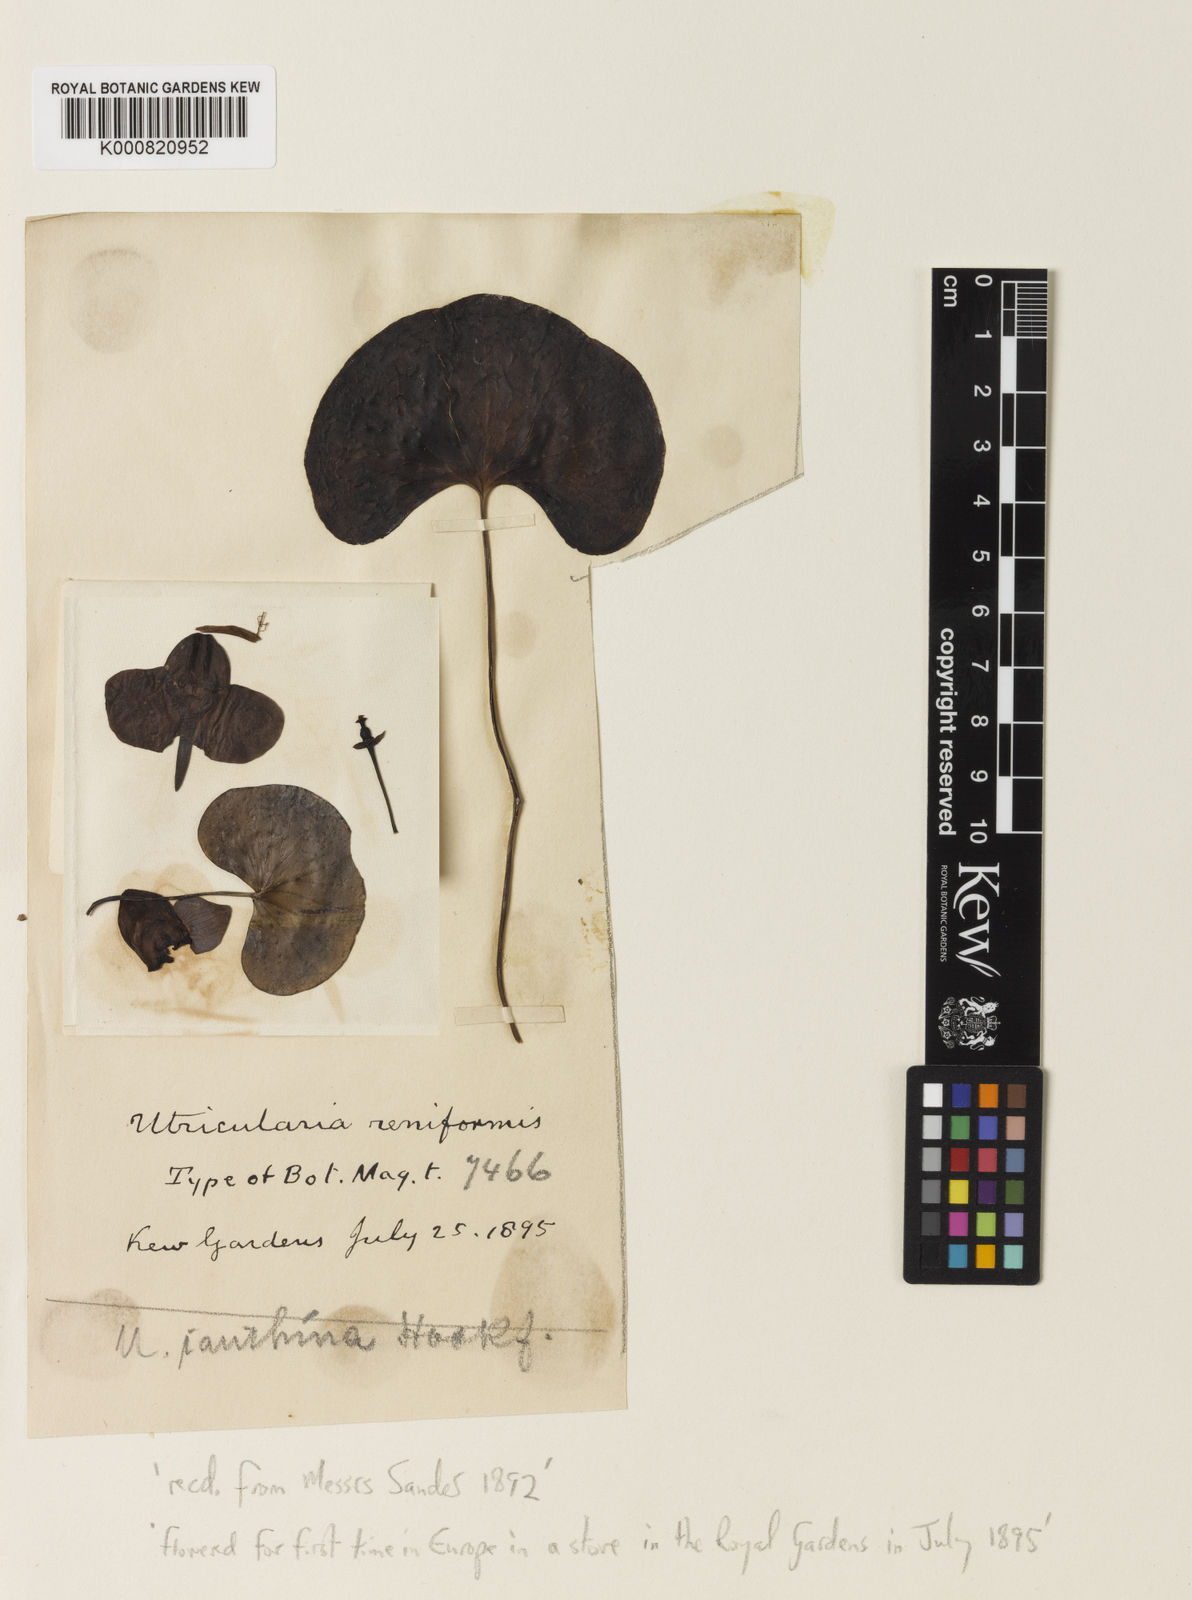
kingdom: Plantae
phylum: Tracheophyta
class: Magnoliopsida
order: Lamiales
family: Lentibulariaceae
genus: Utricularia
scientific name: Utricularia reniformis
